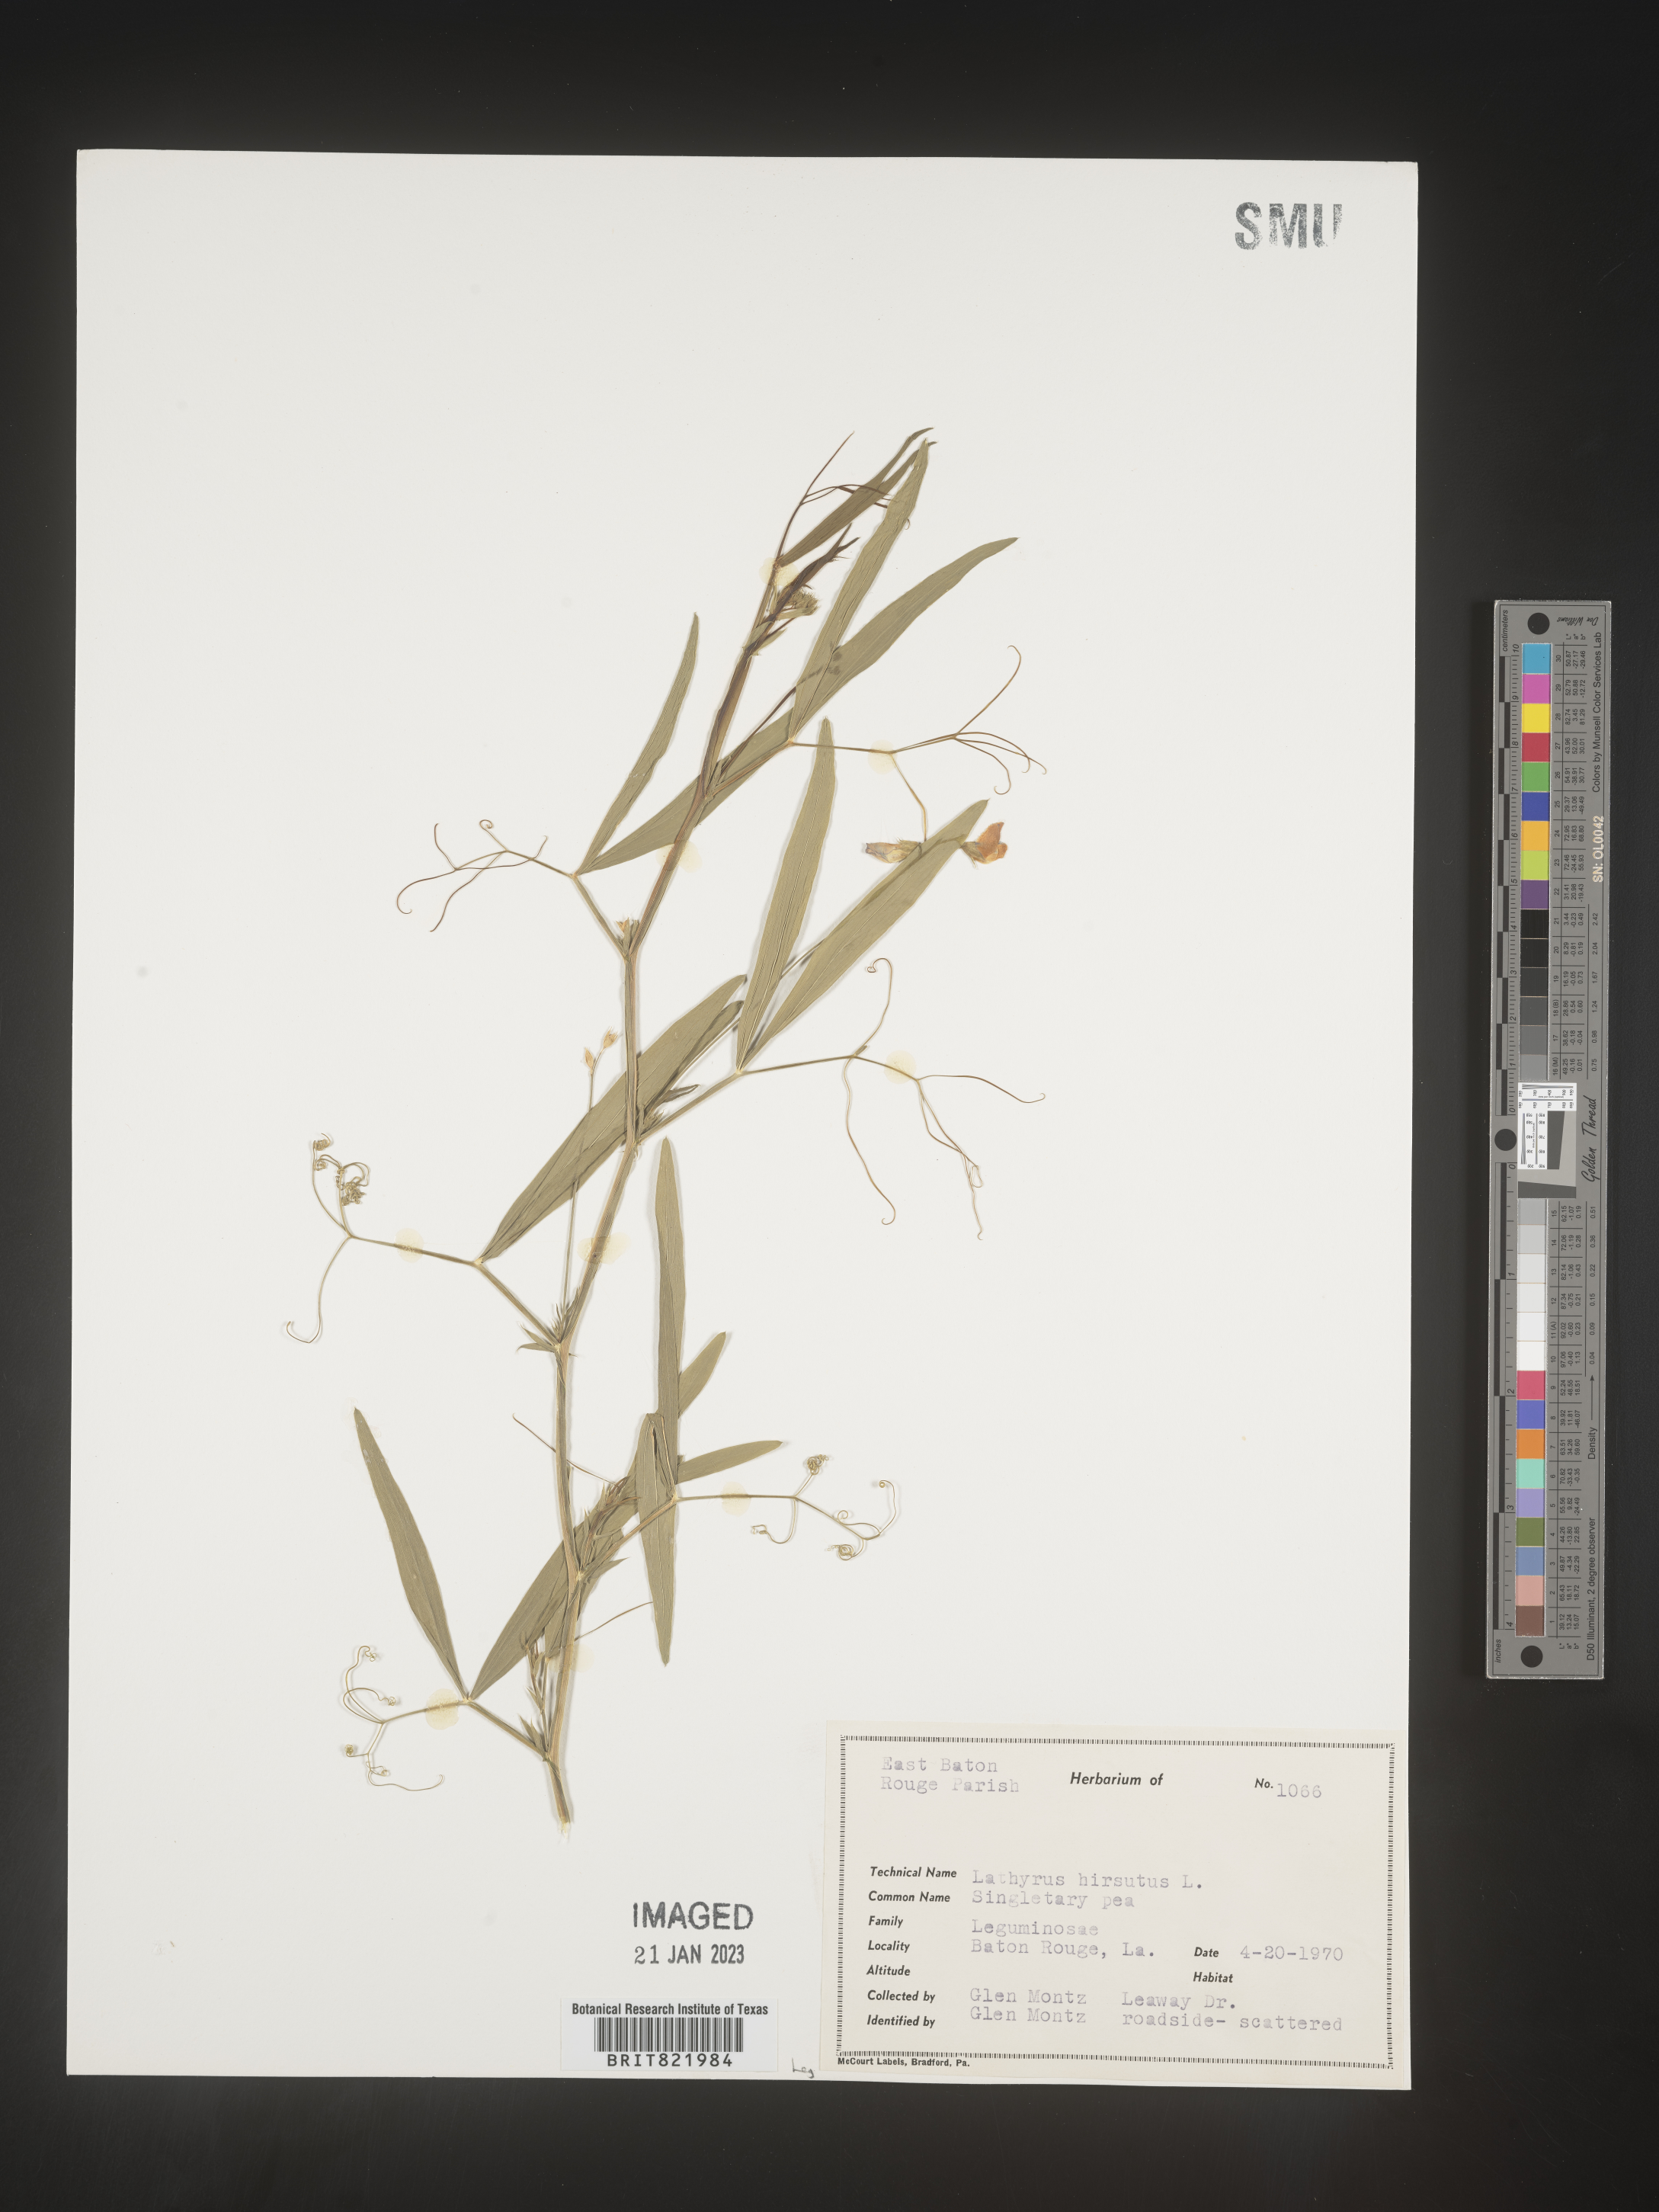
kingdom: Plantae
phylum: Tracheophyta
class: Magnoliopsida
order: Fabales
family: Fabaceae
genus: Lathyrus
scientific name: Lathyrus hirsutus
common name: Hairy vetchling
